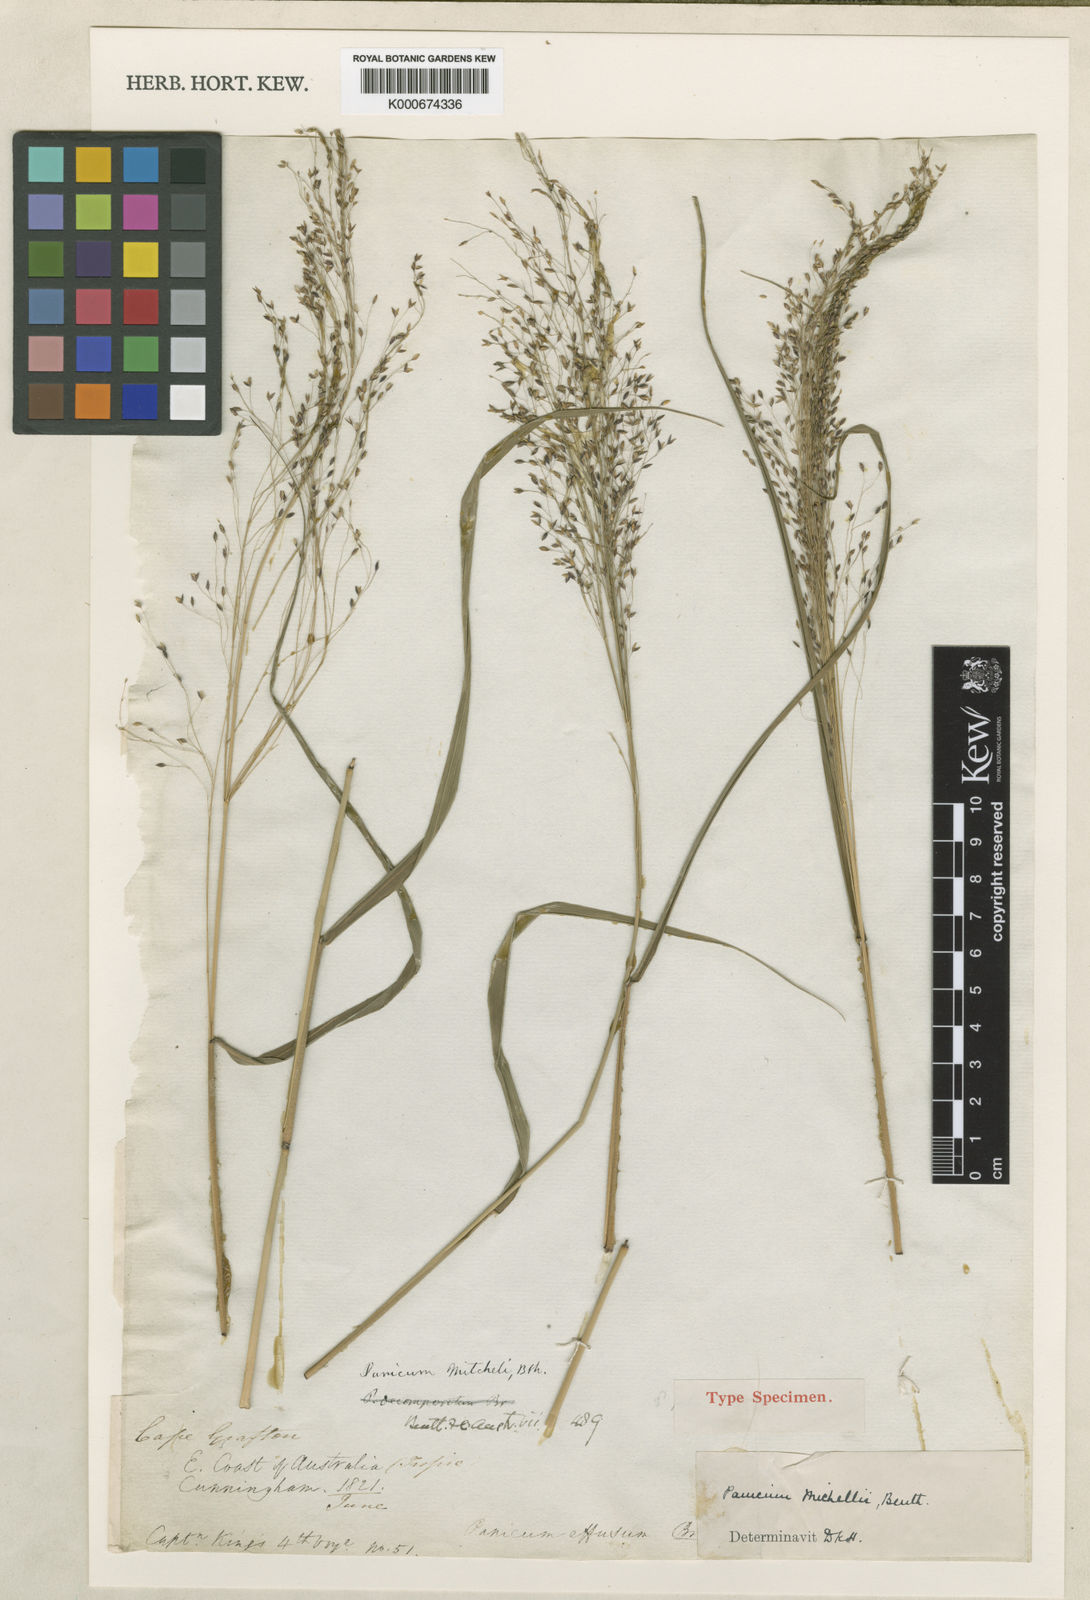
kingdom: Plantae
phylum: Tracheophyta
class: Liliopsida
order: Poales
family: Poaceae
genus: Panicum
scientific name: Panicum mitchellii
